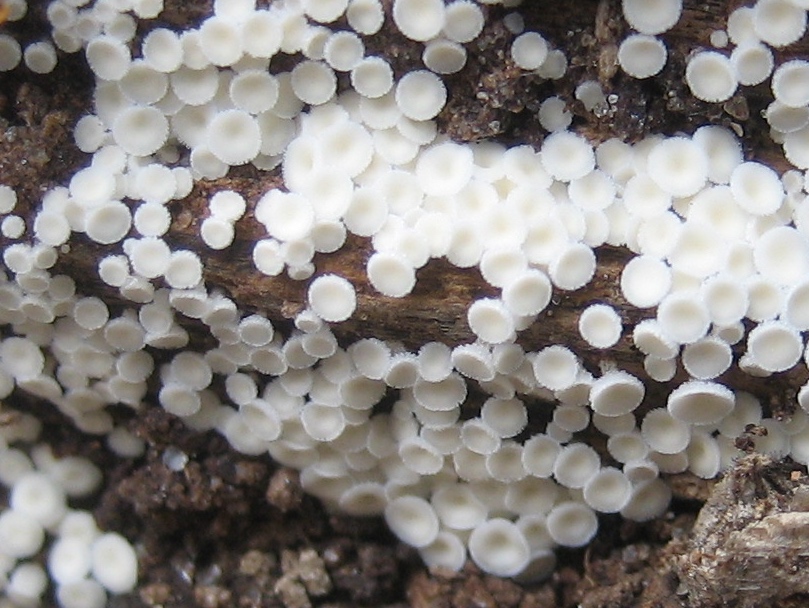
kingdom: Fungi
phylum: Ascomycota
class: Leotiomycetes
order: Helotiales
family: Lachnaceae
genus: Lachnum
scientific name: Lachnum
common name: frynseskive
